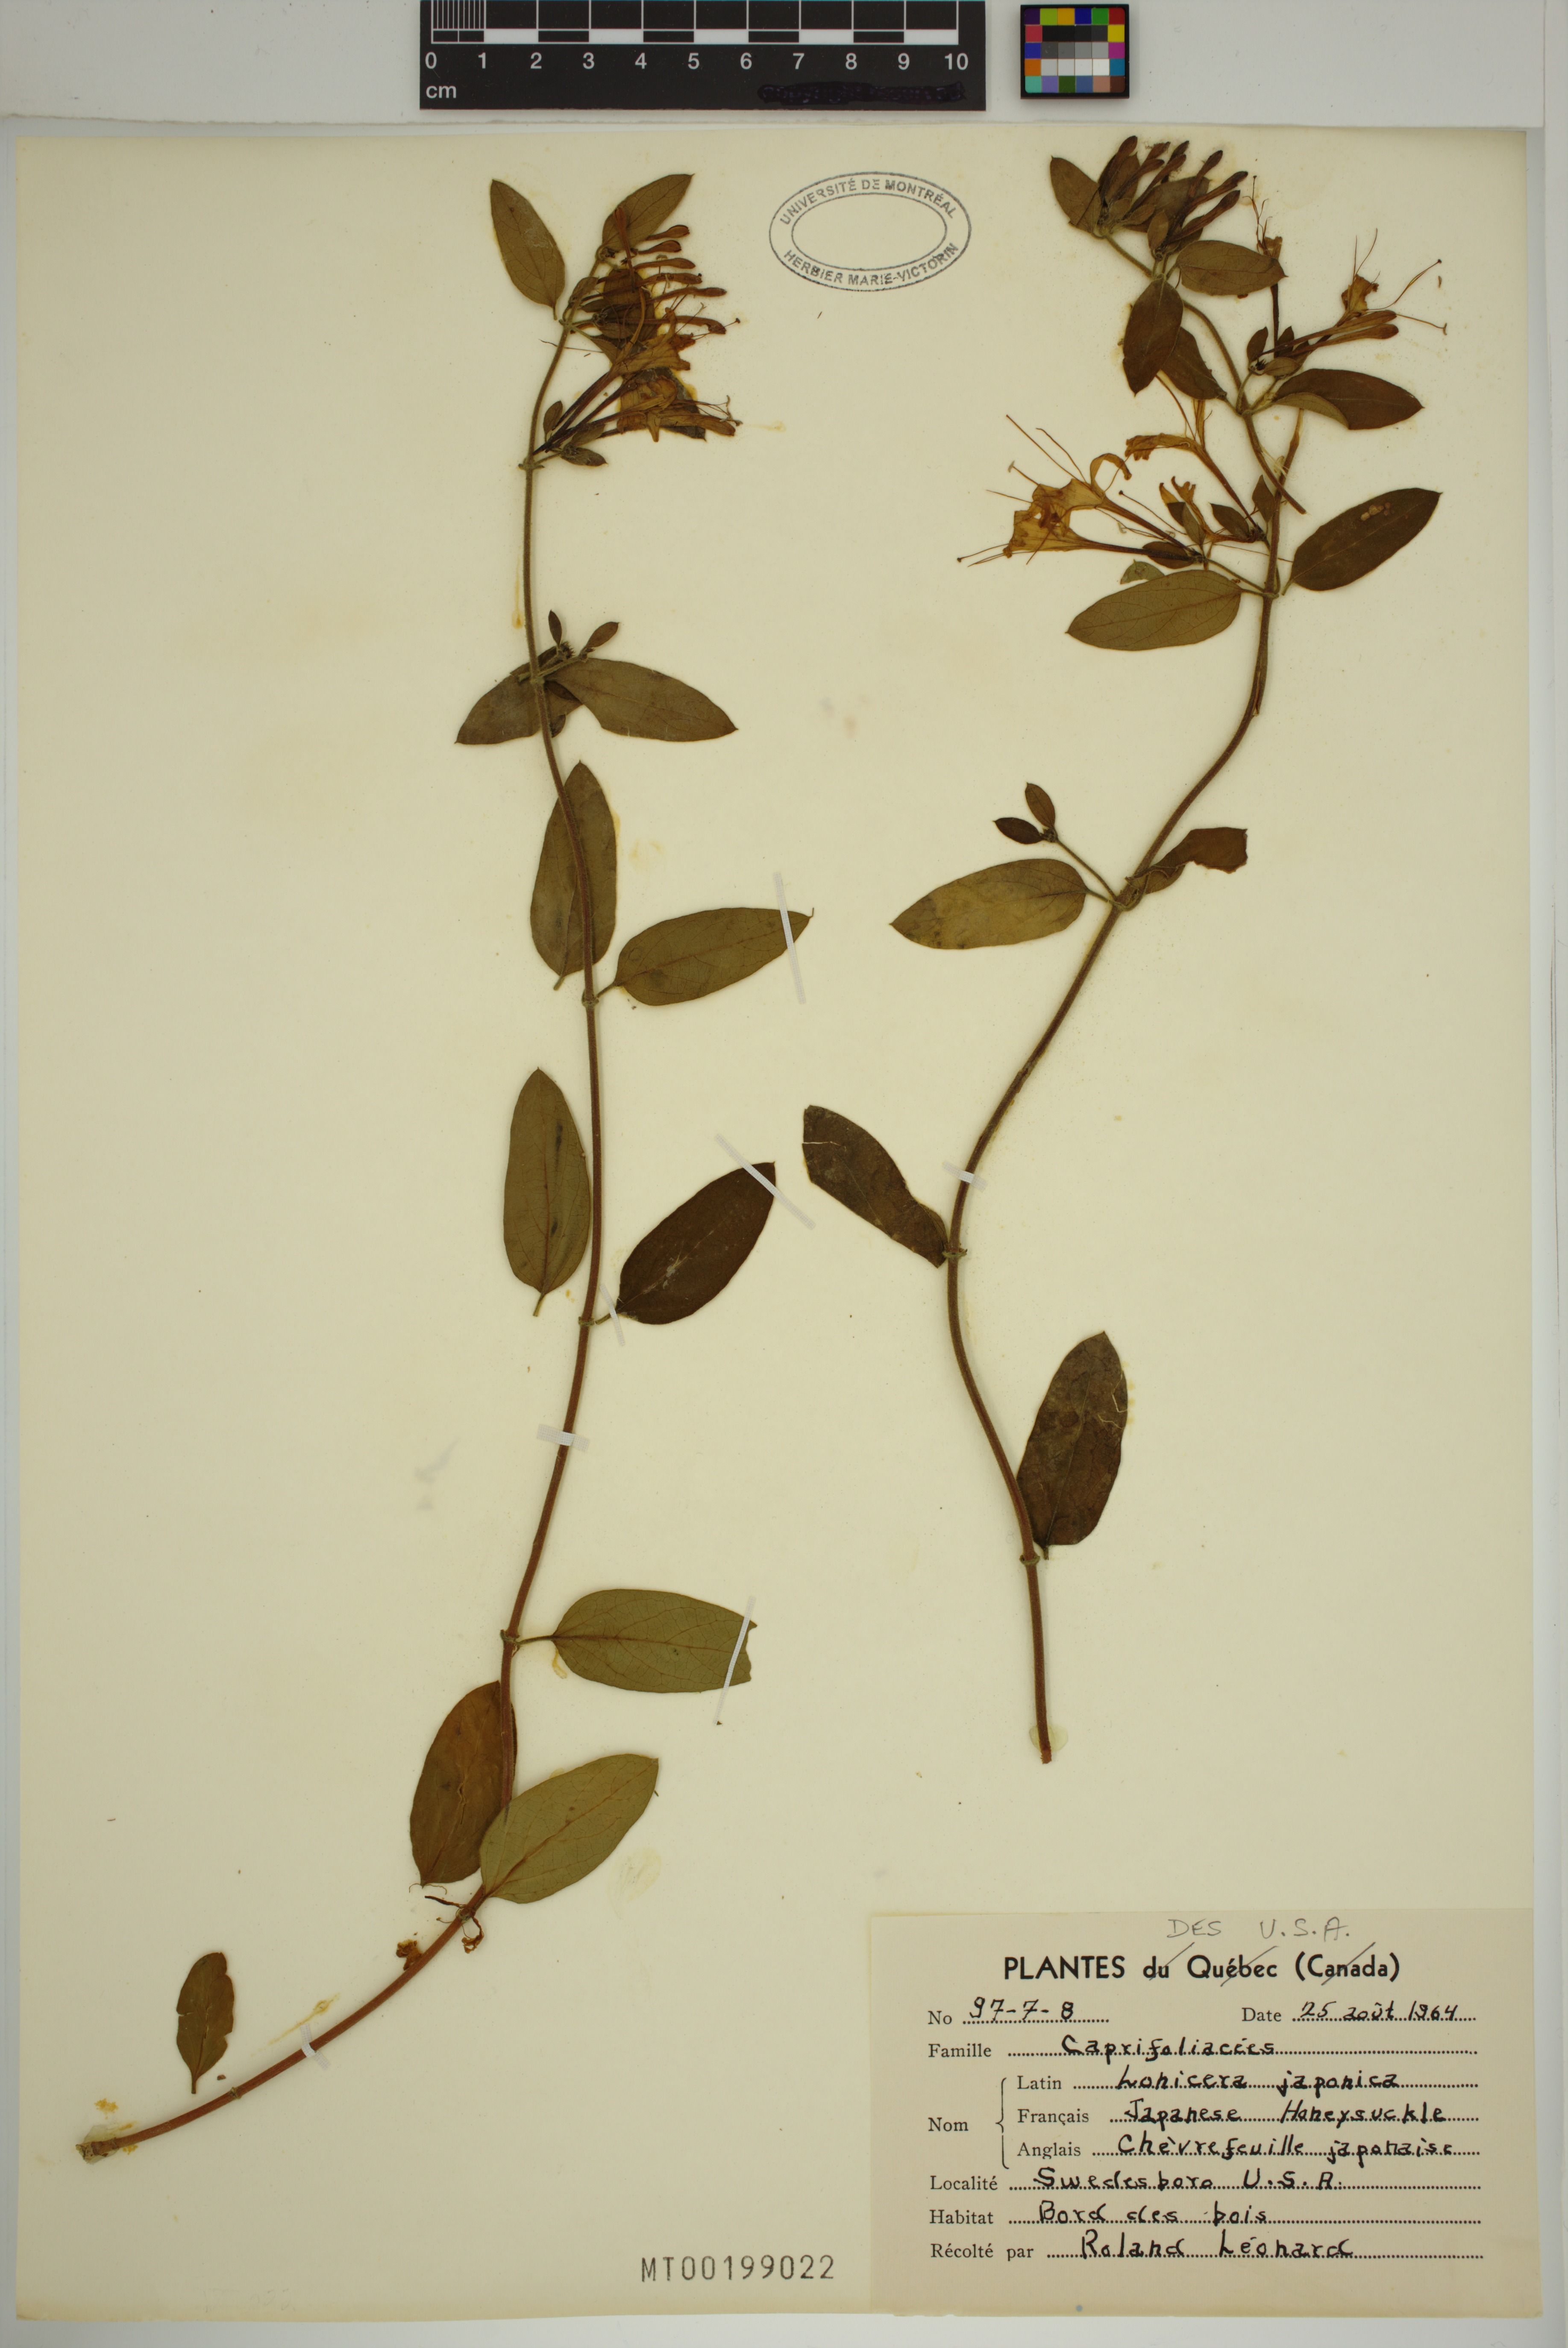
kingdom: Plantae
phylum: Tracheophyta
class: Magnoliopsida
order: Dipsacales
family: Caprifoliaceae
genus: Lonicera
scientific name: Lonicera japonica
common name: Japanese honeysuckle
